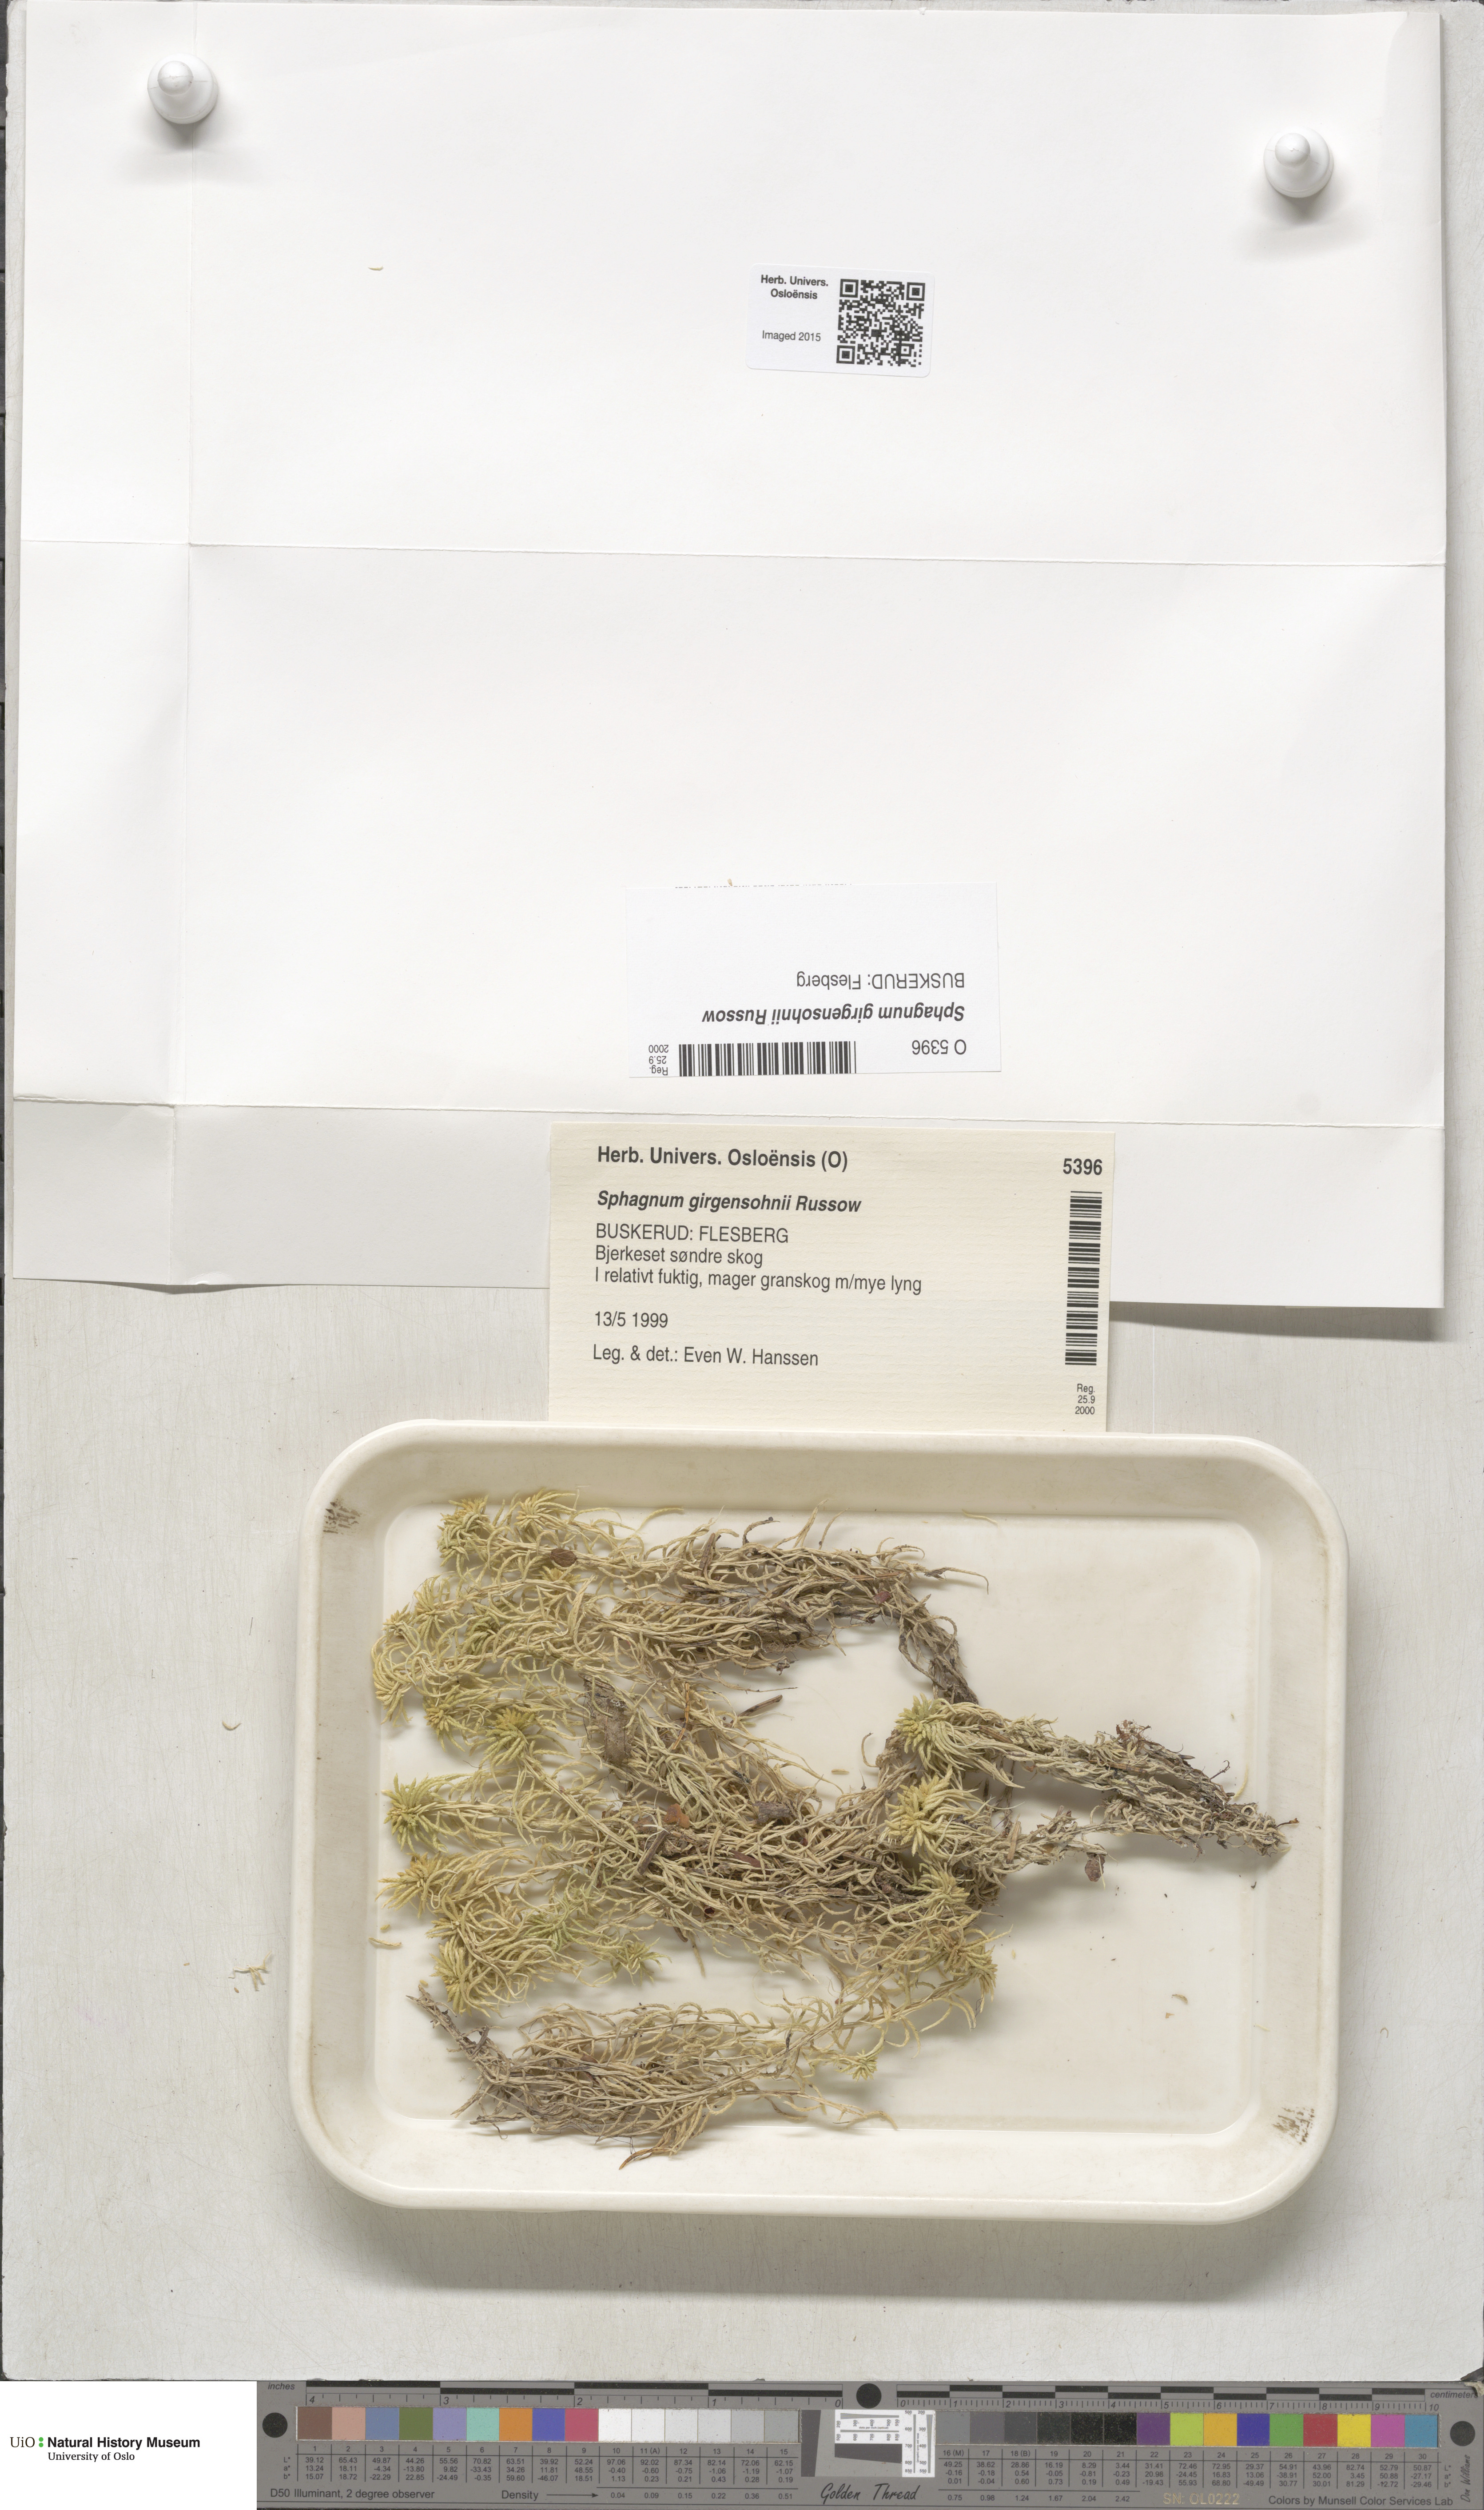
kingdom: Plantae
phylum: Bryophyta
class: Sphagnopsida
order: Sphagnales
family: Sphagnaceae
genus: Sphagnum
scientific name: Sphagnum girgensohnii
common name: Girgensohn's peat moss
